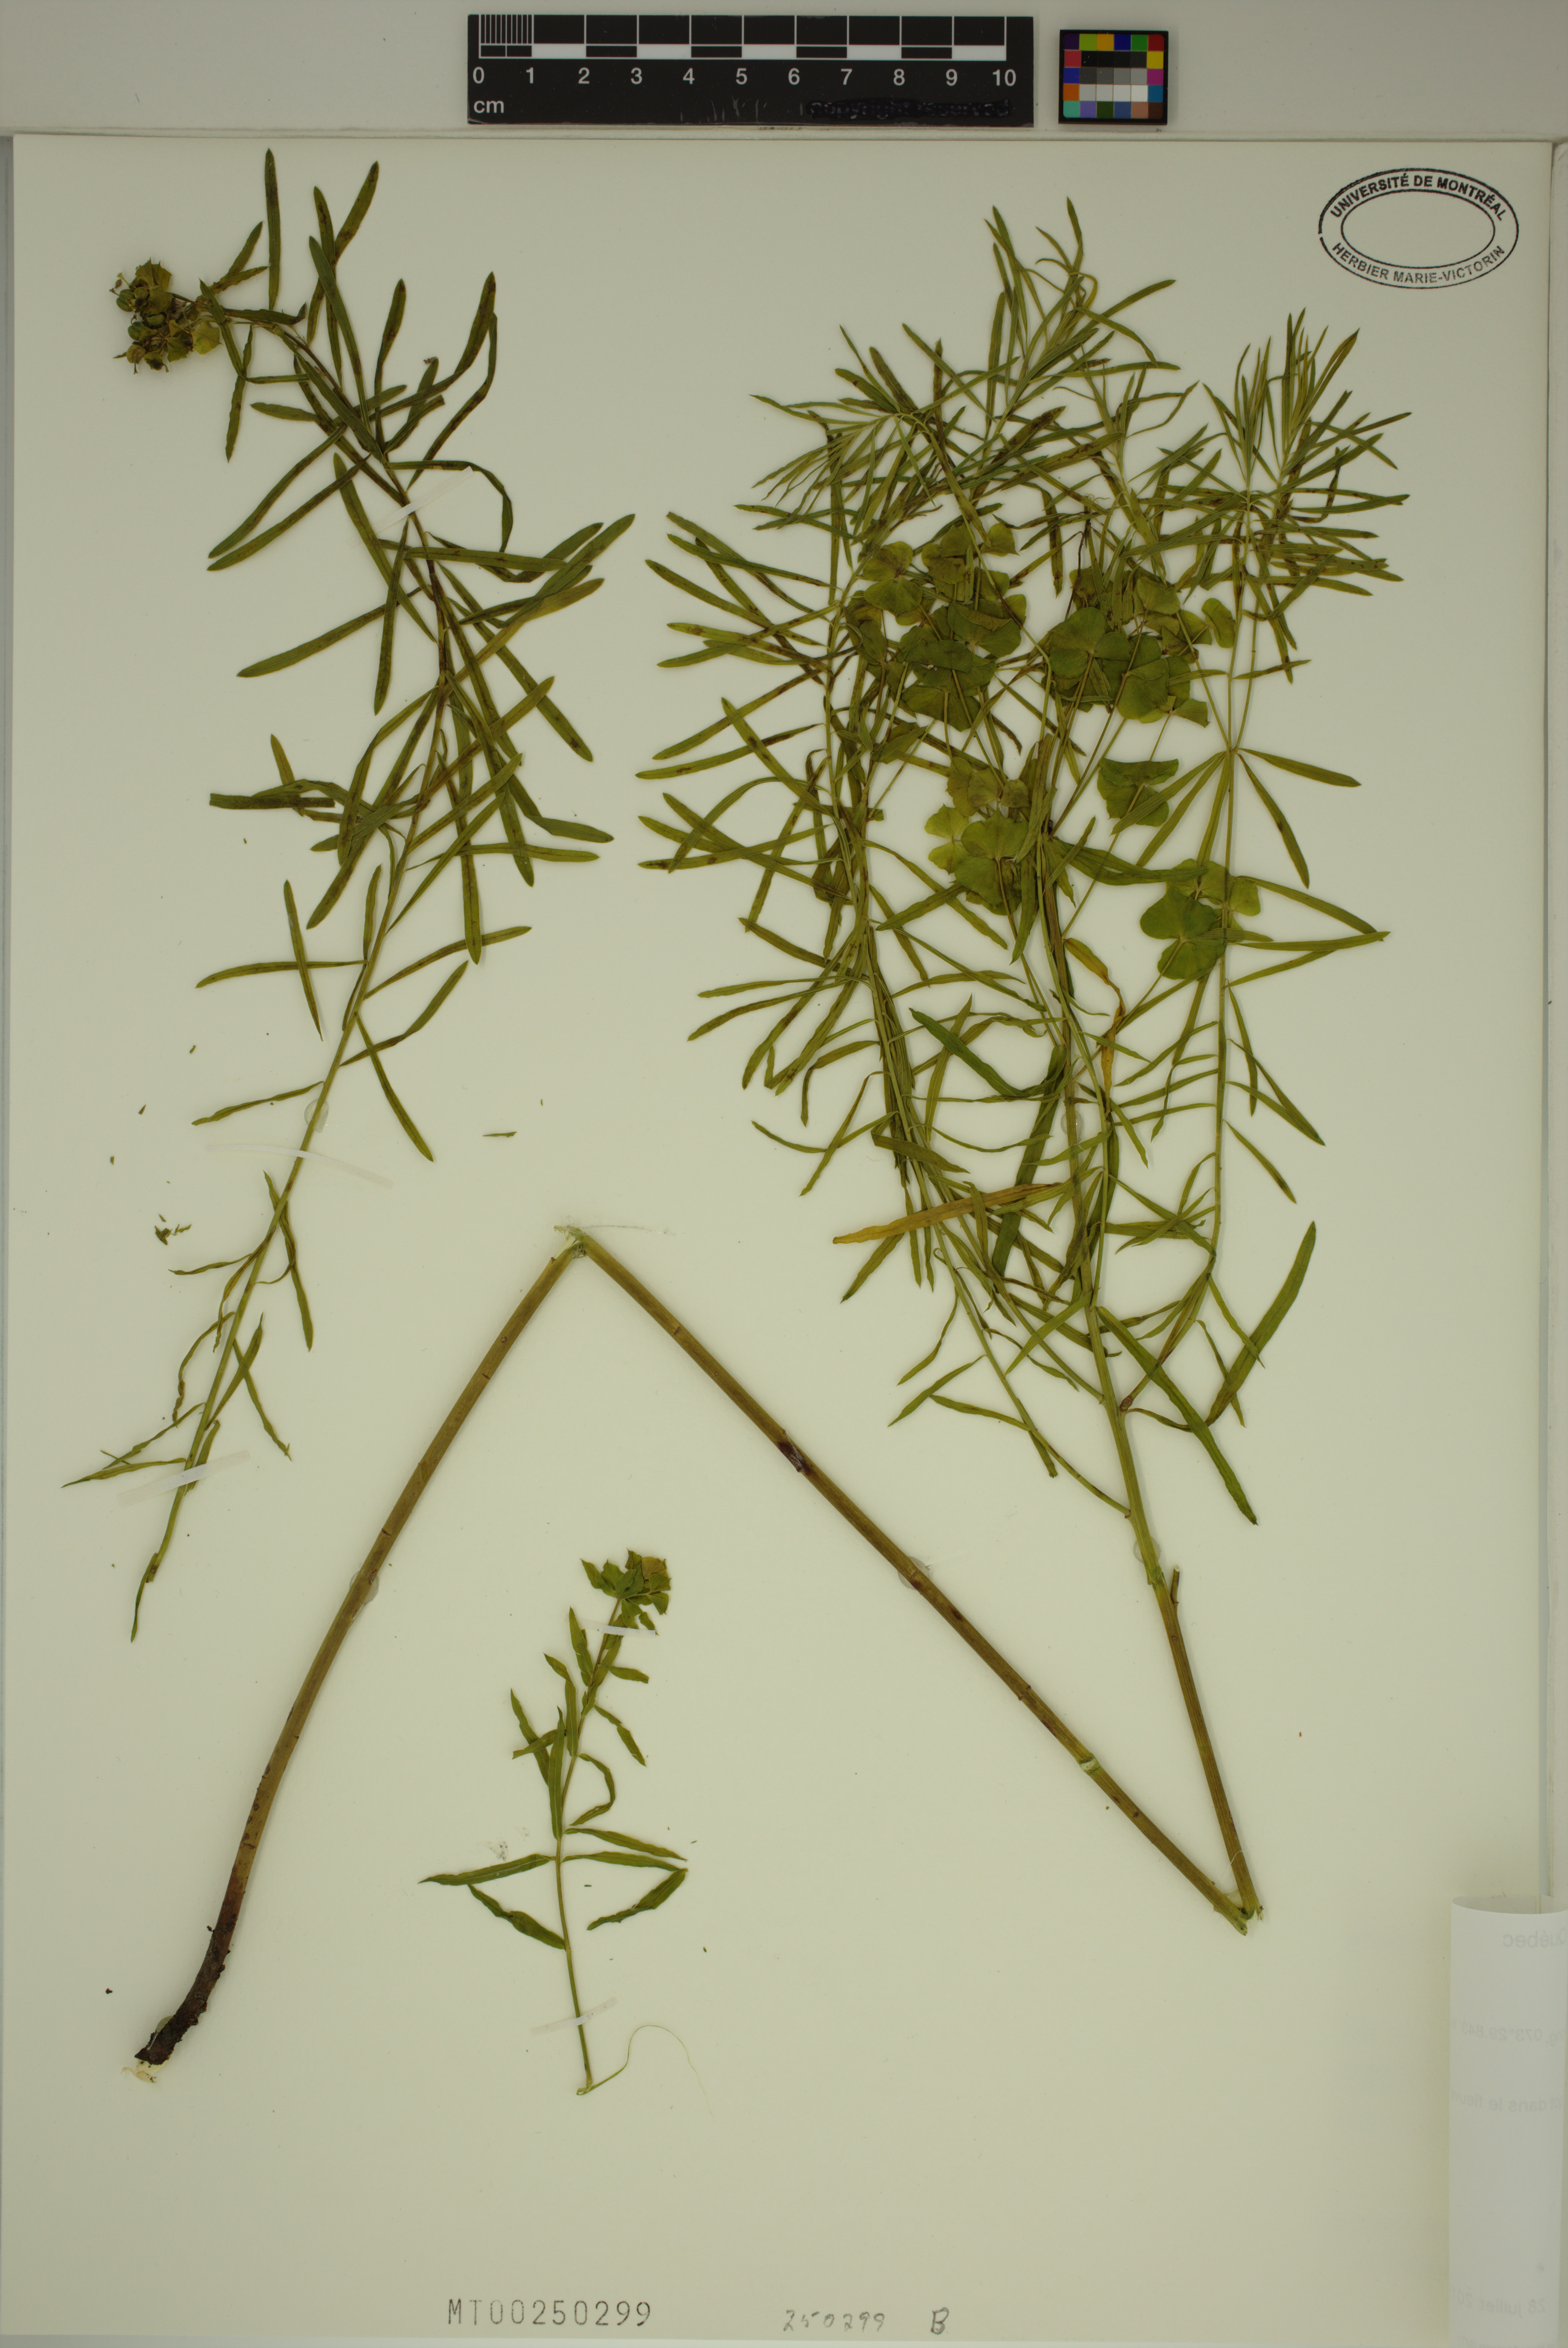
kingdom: Plantae
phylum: Tracheophyta
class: Magnoliopsida
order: Malpighiales
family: Euphorbiaceae
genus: Euphorbia
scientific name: Euphorbia esula
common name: Leafy spurge
